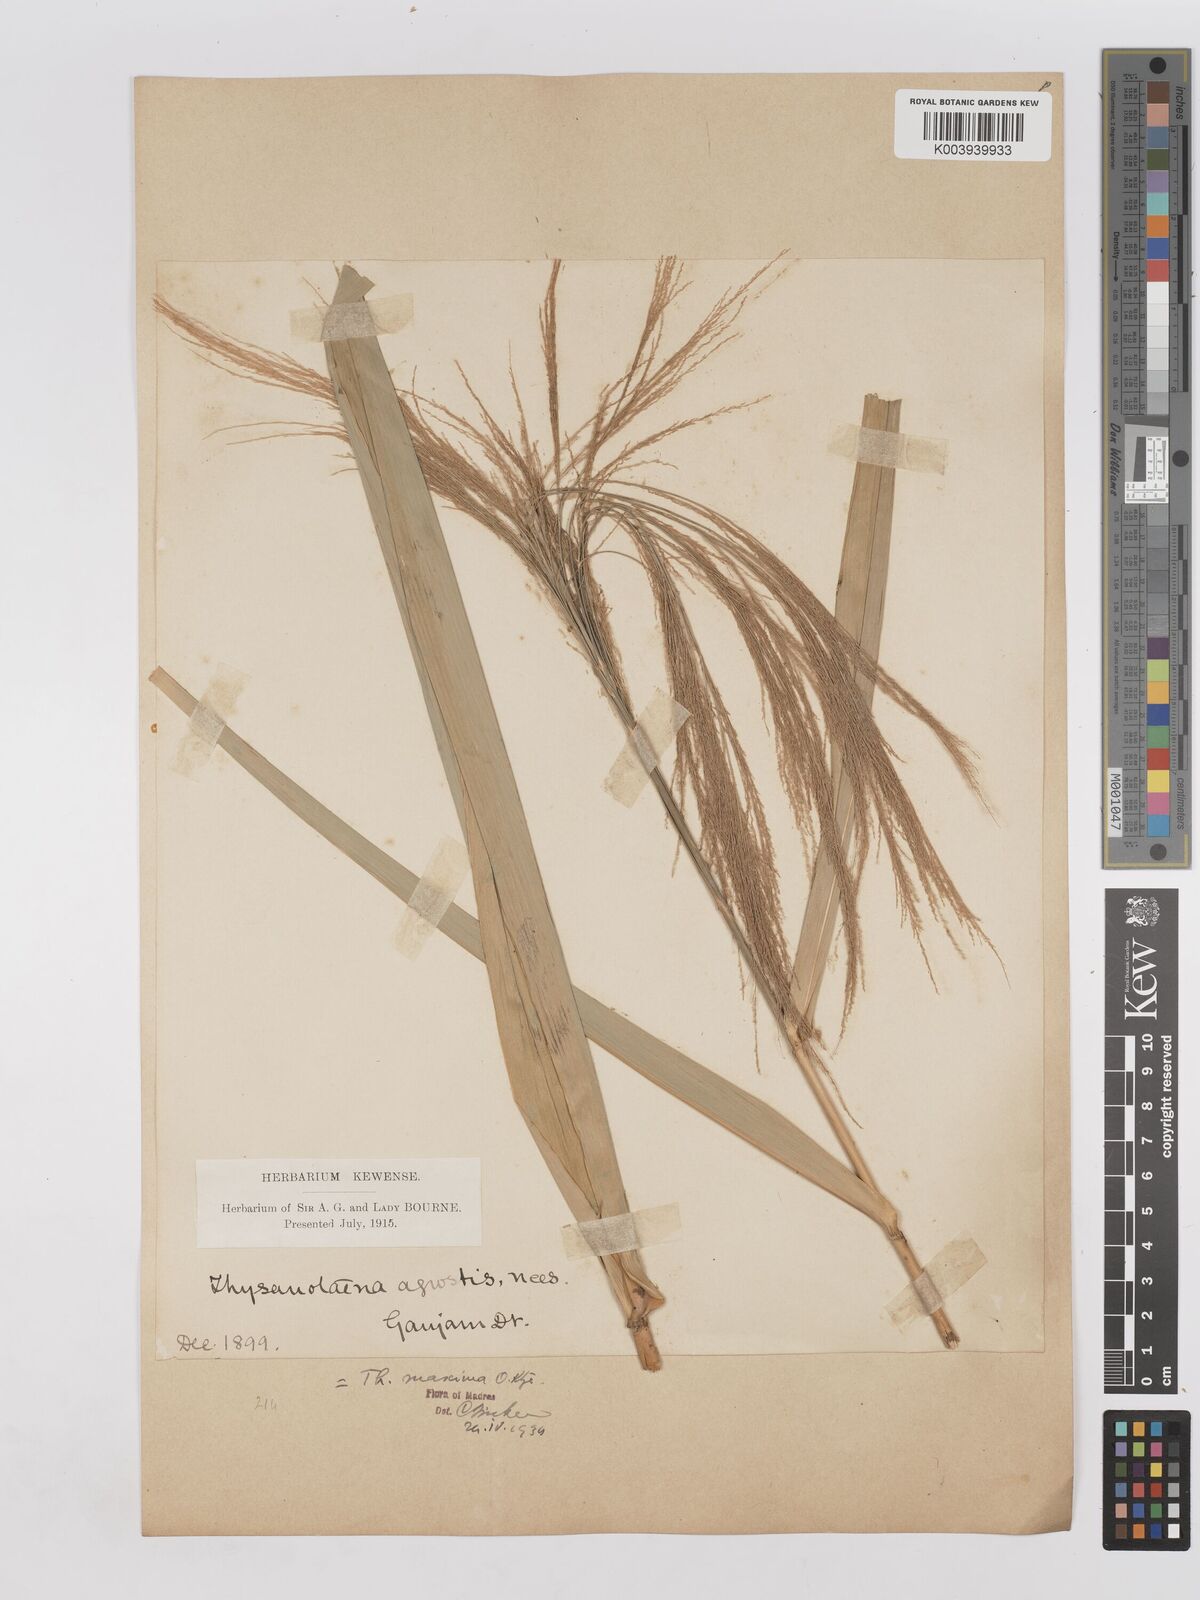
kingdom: Plantae
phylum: Tracheophyta
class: Liliopsida
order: Poales
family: Poaceae
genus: Thysanolaena
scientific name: Thysanolaena latifolia
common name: Tiger grass
